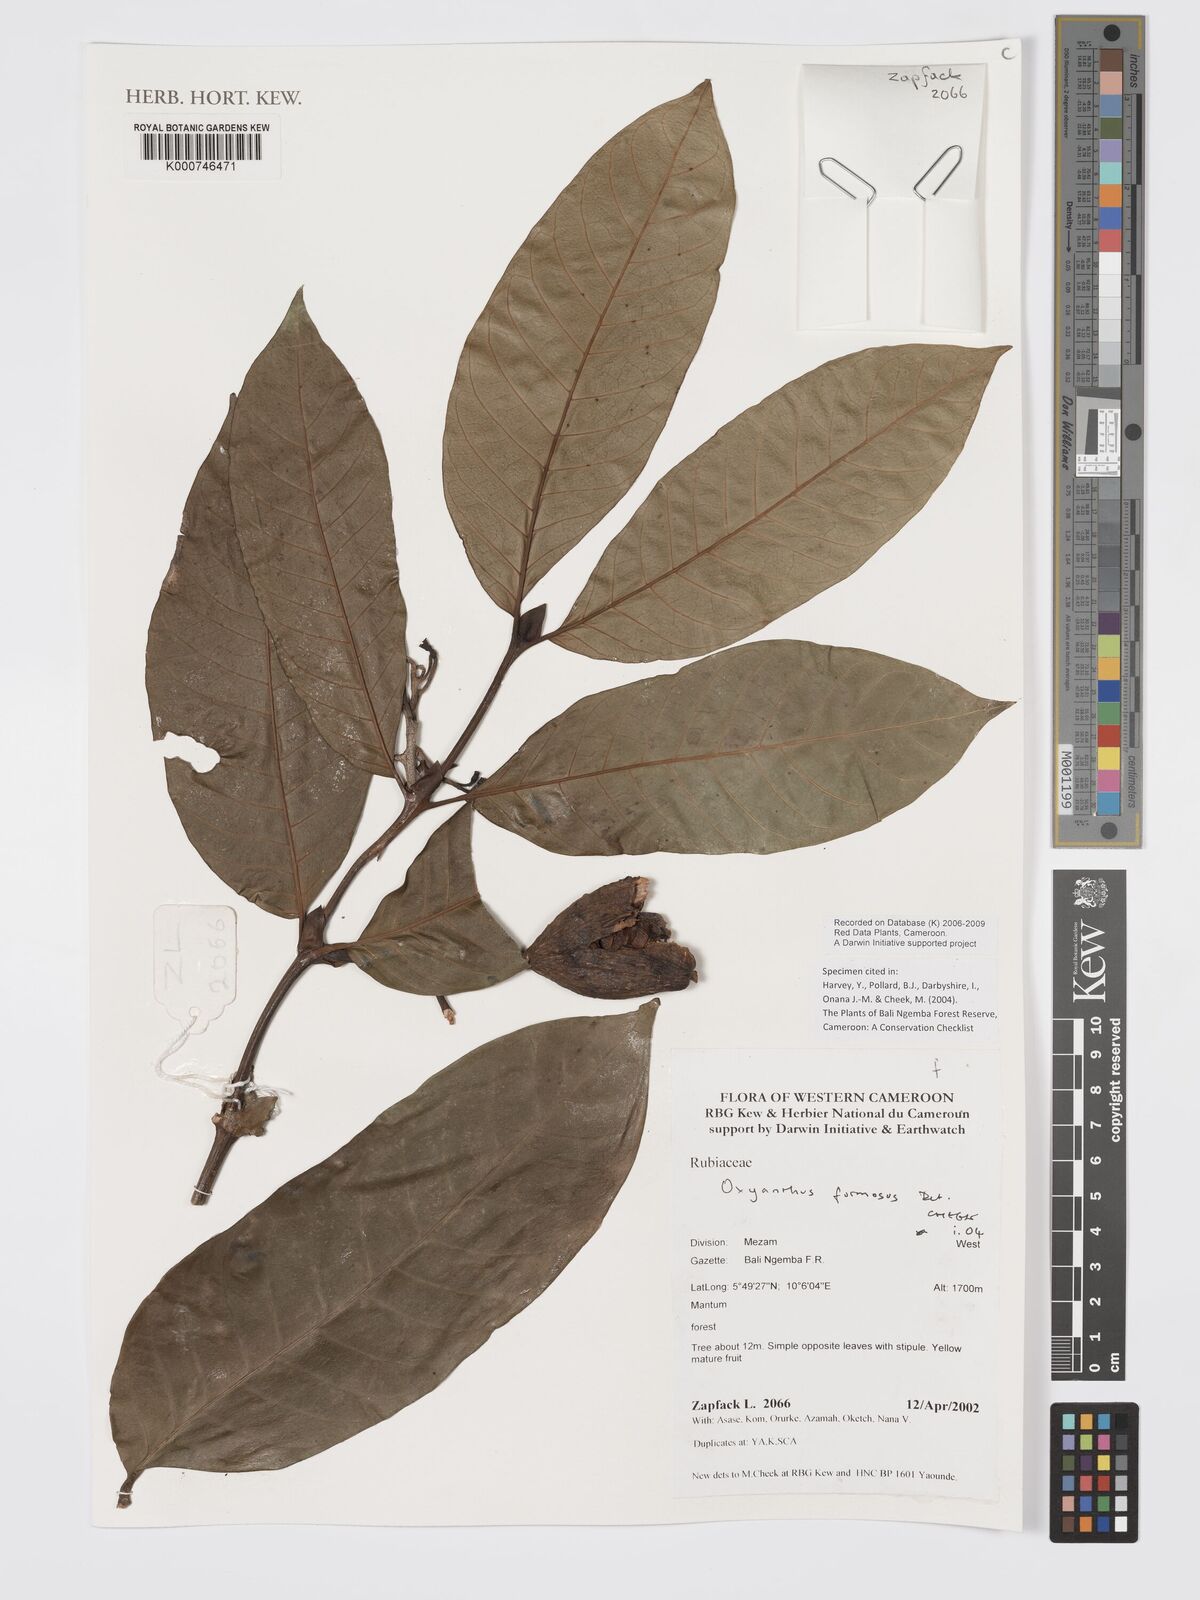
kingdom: Plantae
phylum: Tracheophyta
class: Magnoliopsida
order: Gentianales
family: Rubiaceae
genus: Oxyanthus
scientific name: Oxyanthus
